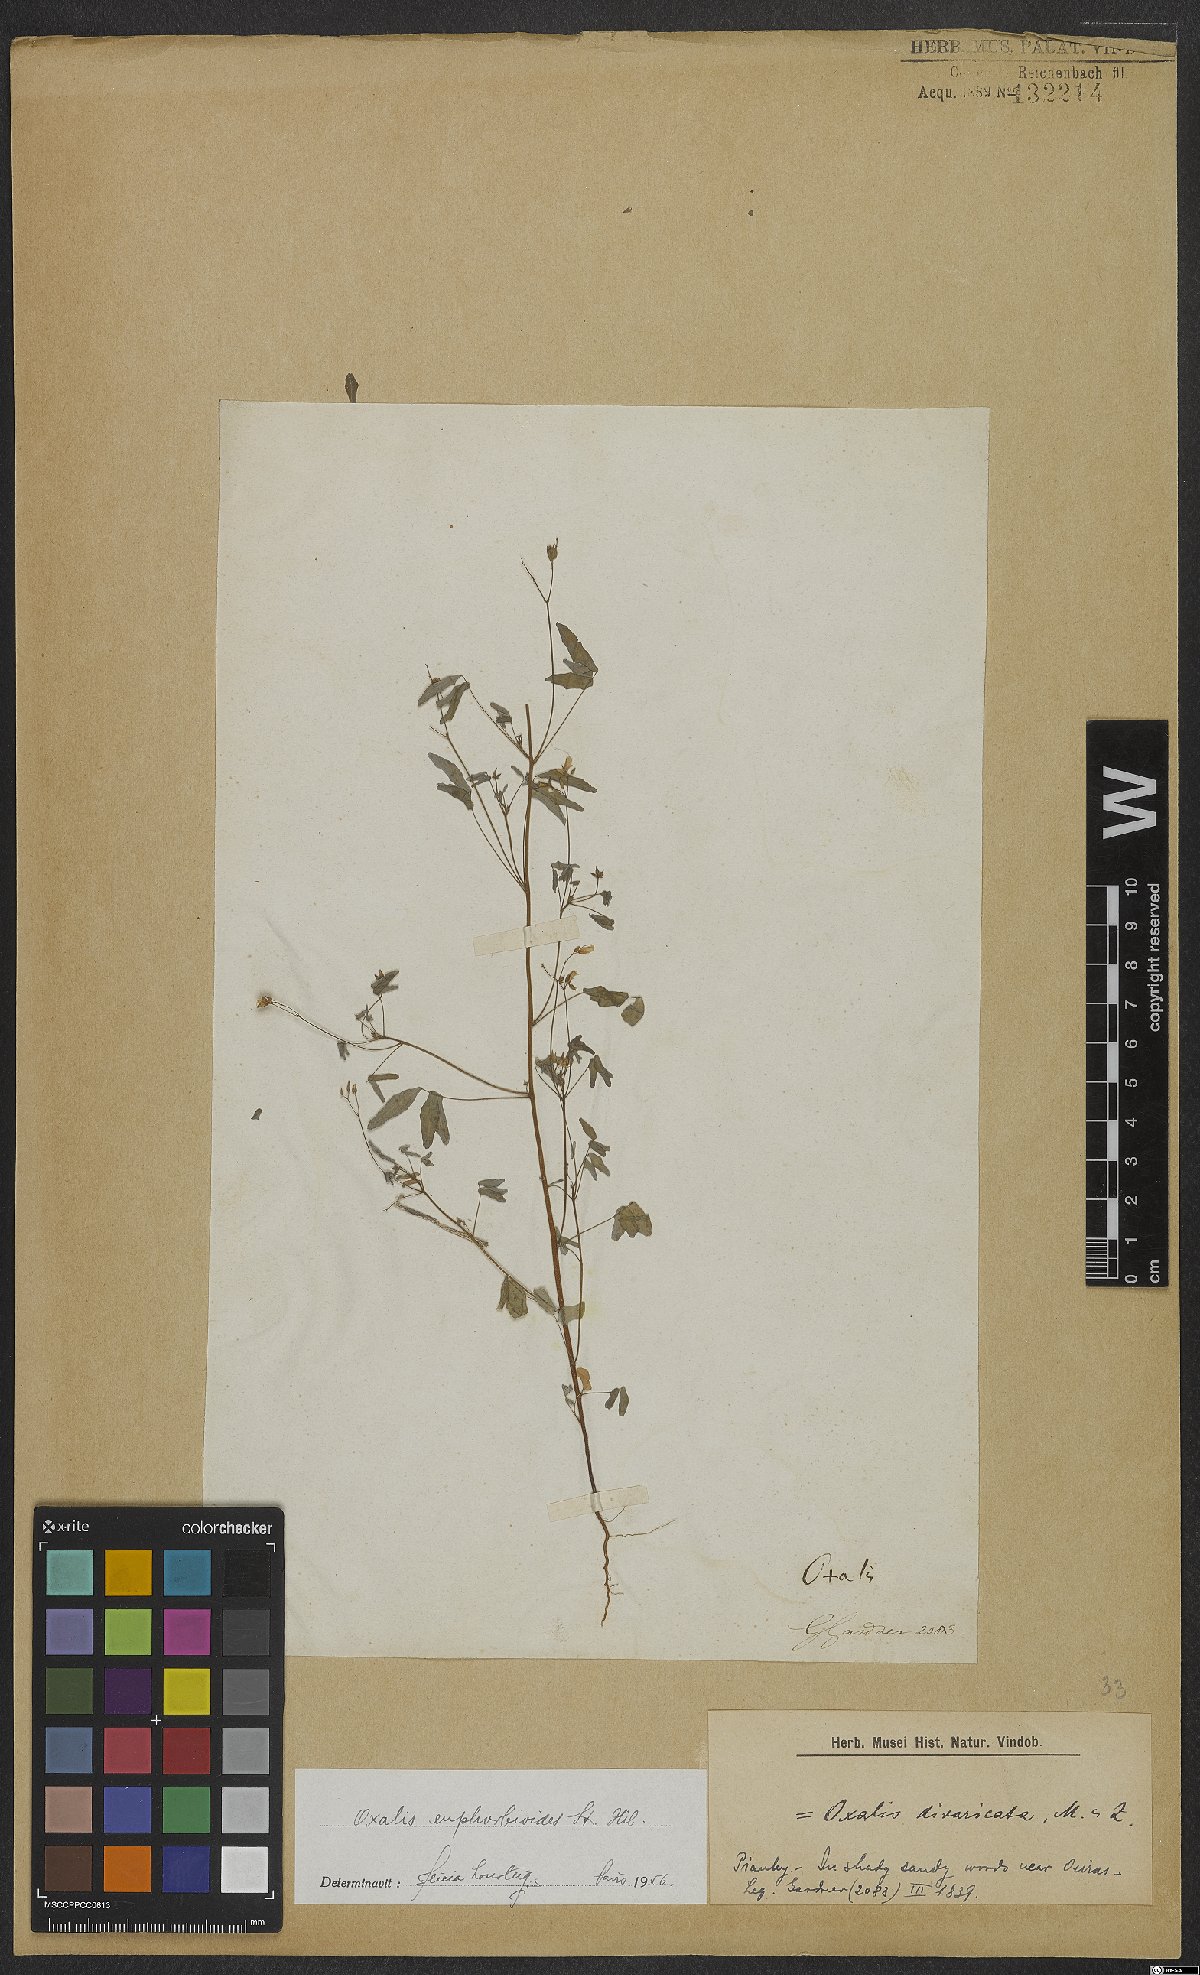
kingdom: Plantae
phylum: Tracheophyta
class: Magnoliopsida
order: Oxalidales
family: Oxalidaceae
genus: Oxalis
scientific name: Oxalis divaricata
